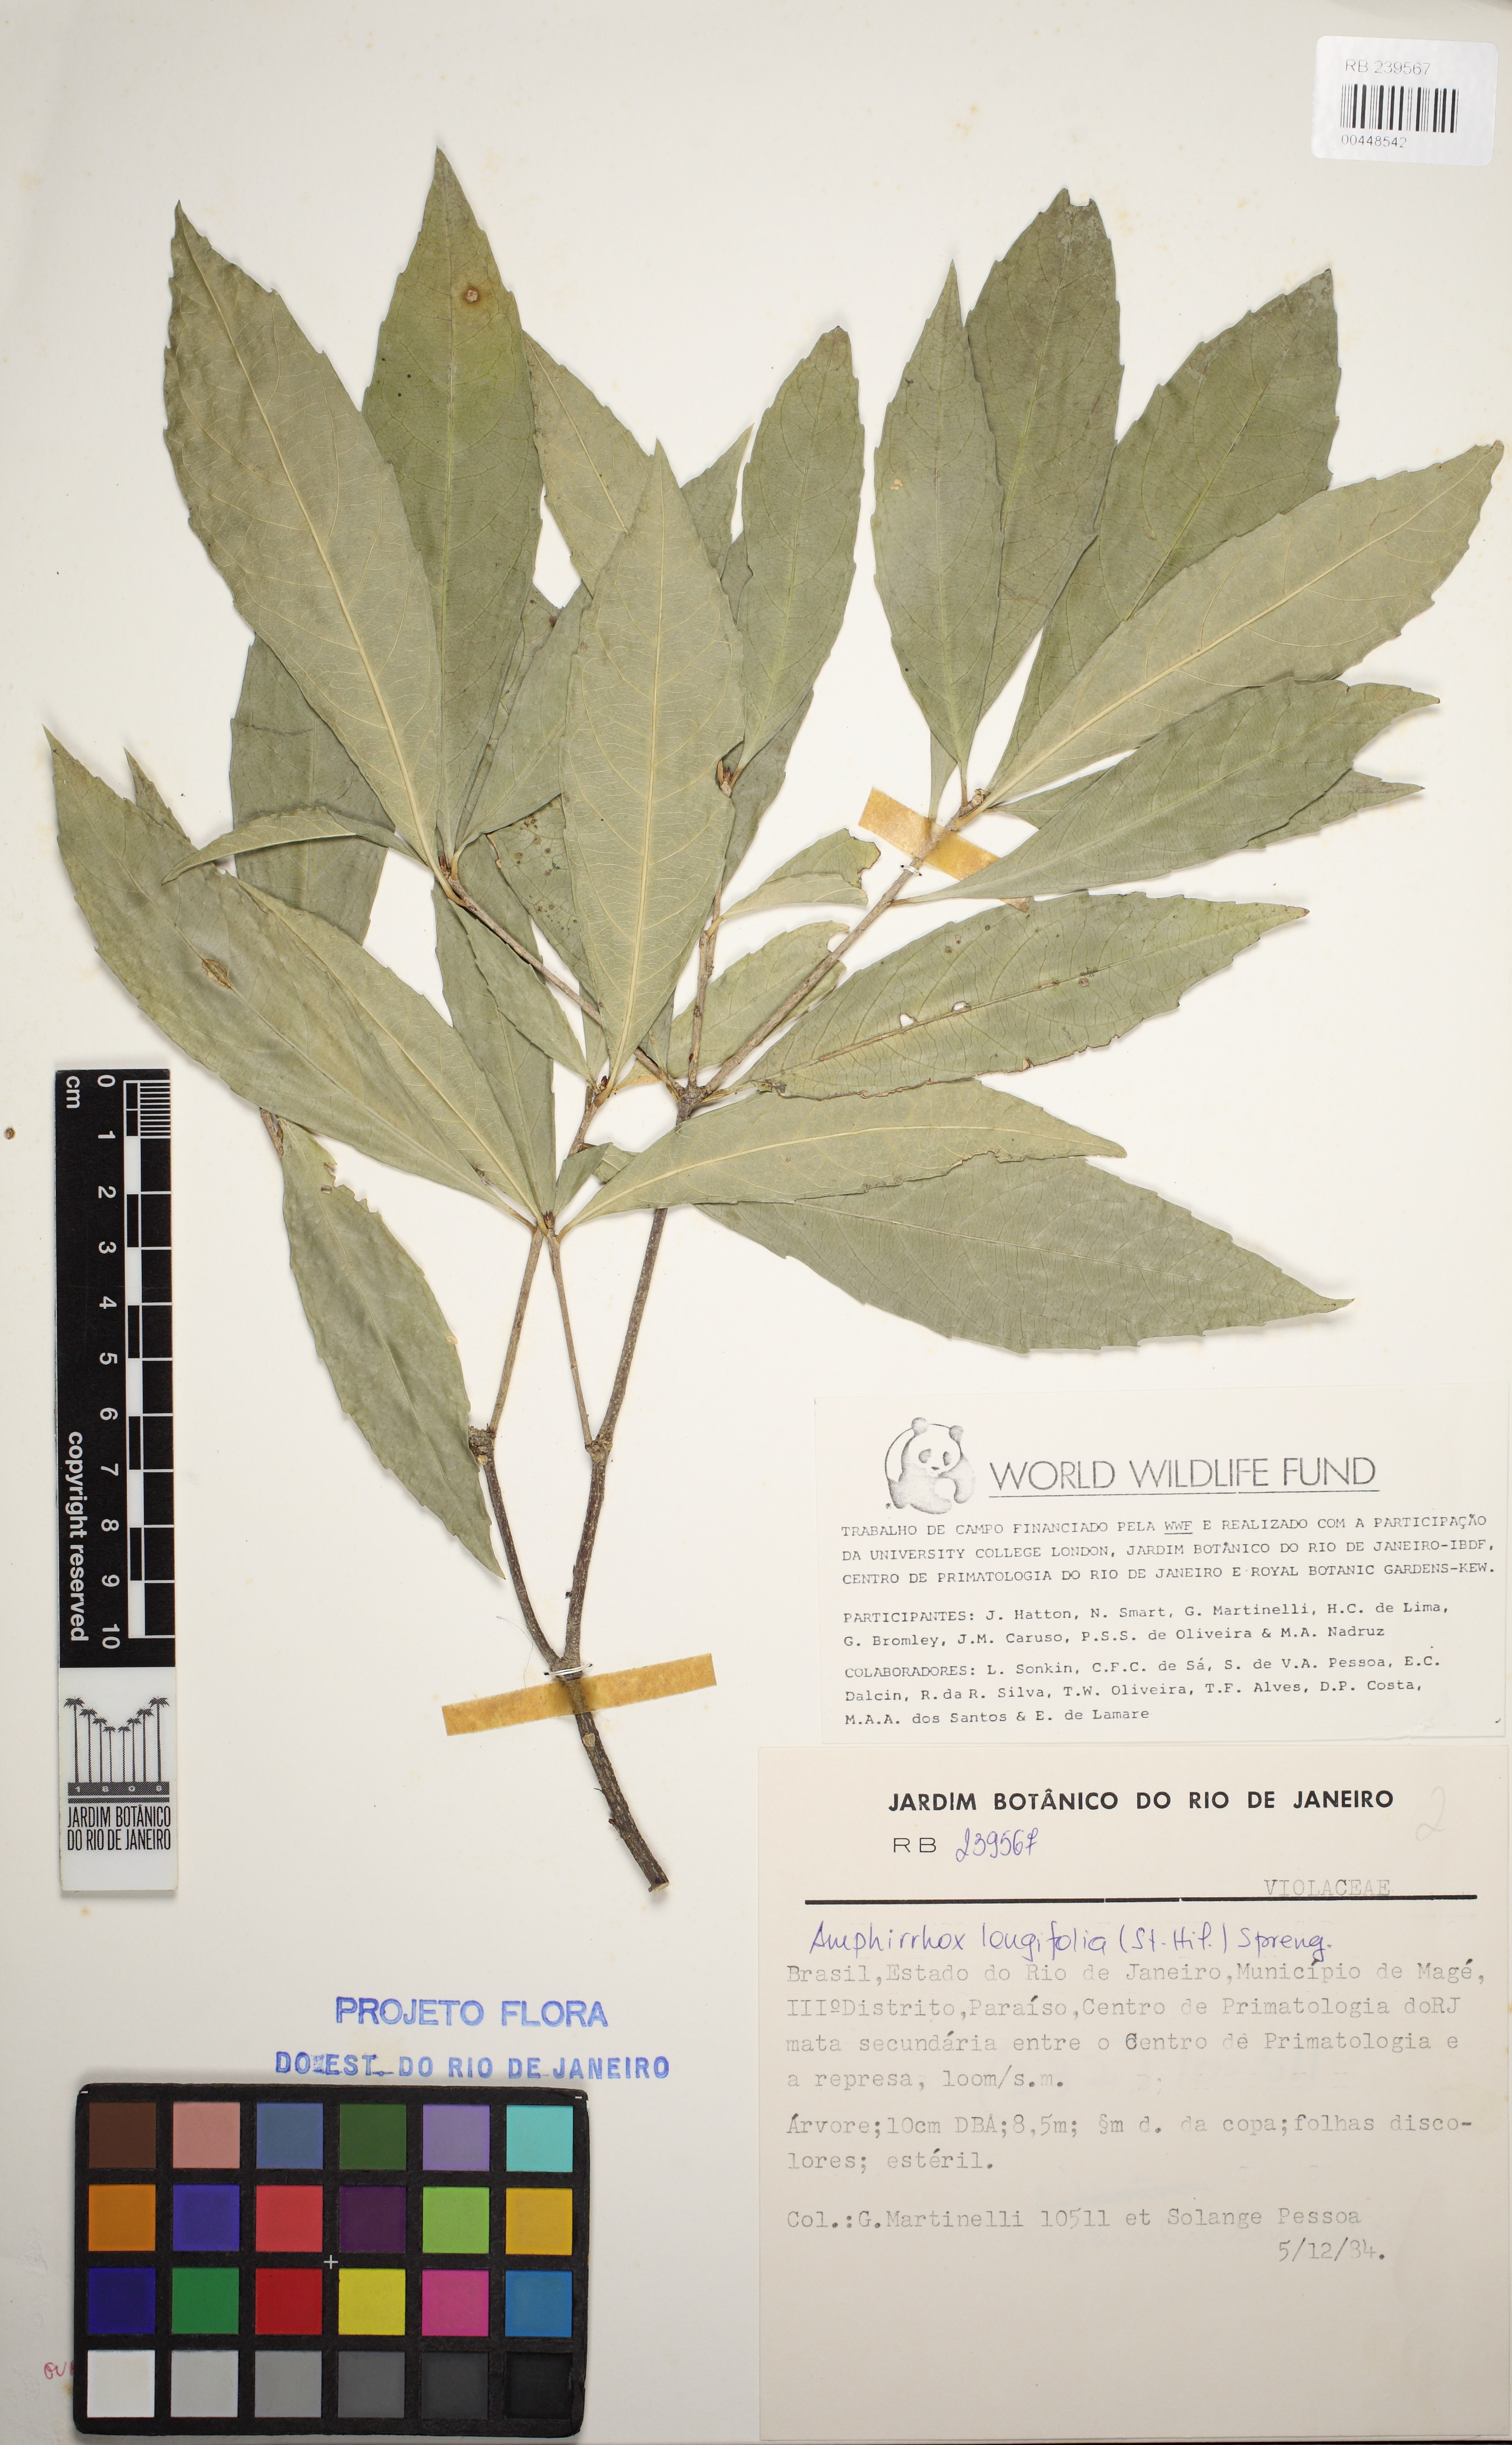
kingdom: Plantae
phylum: Tracheophyta
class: Magnoliopsida
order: Malpighiales
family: Violaceae
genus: Amphirrhox
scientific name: Amphirrhox longifolia
